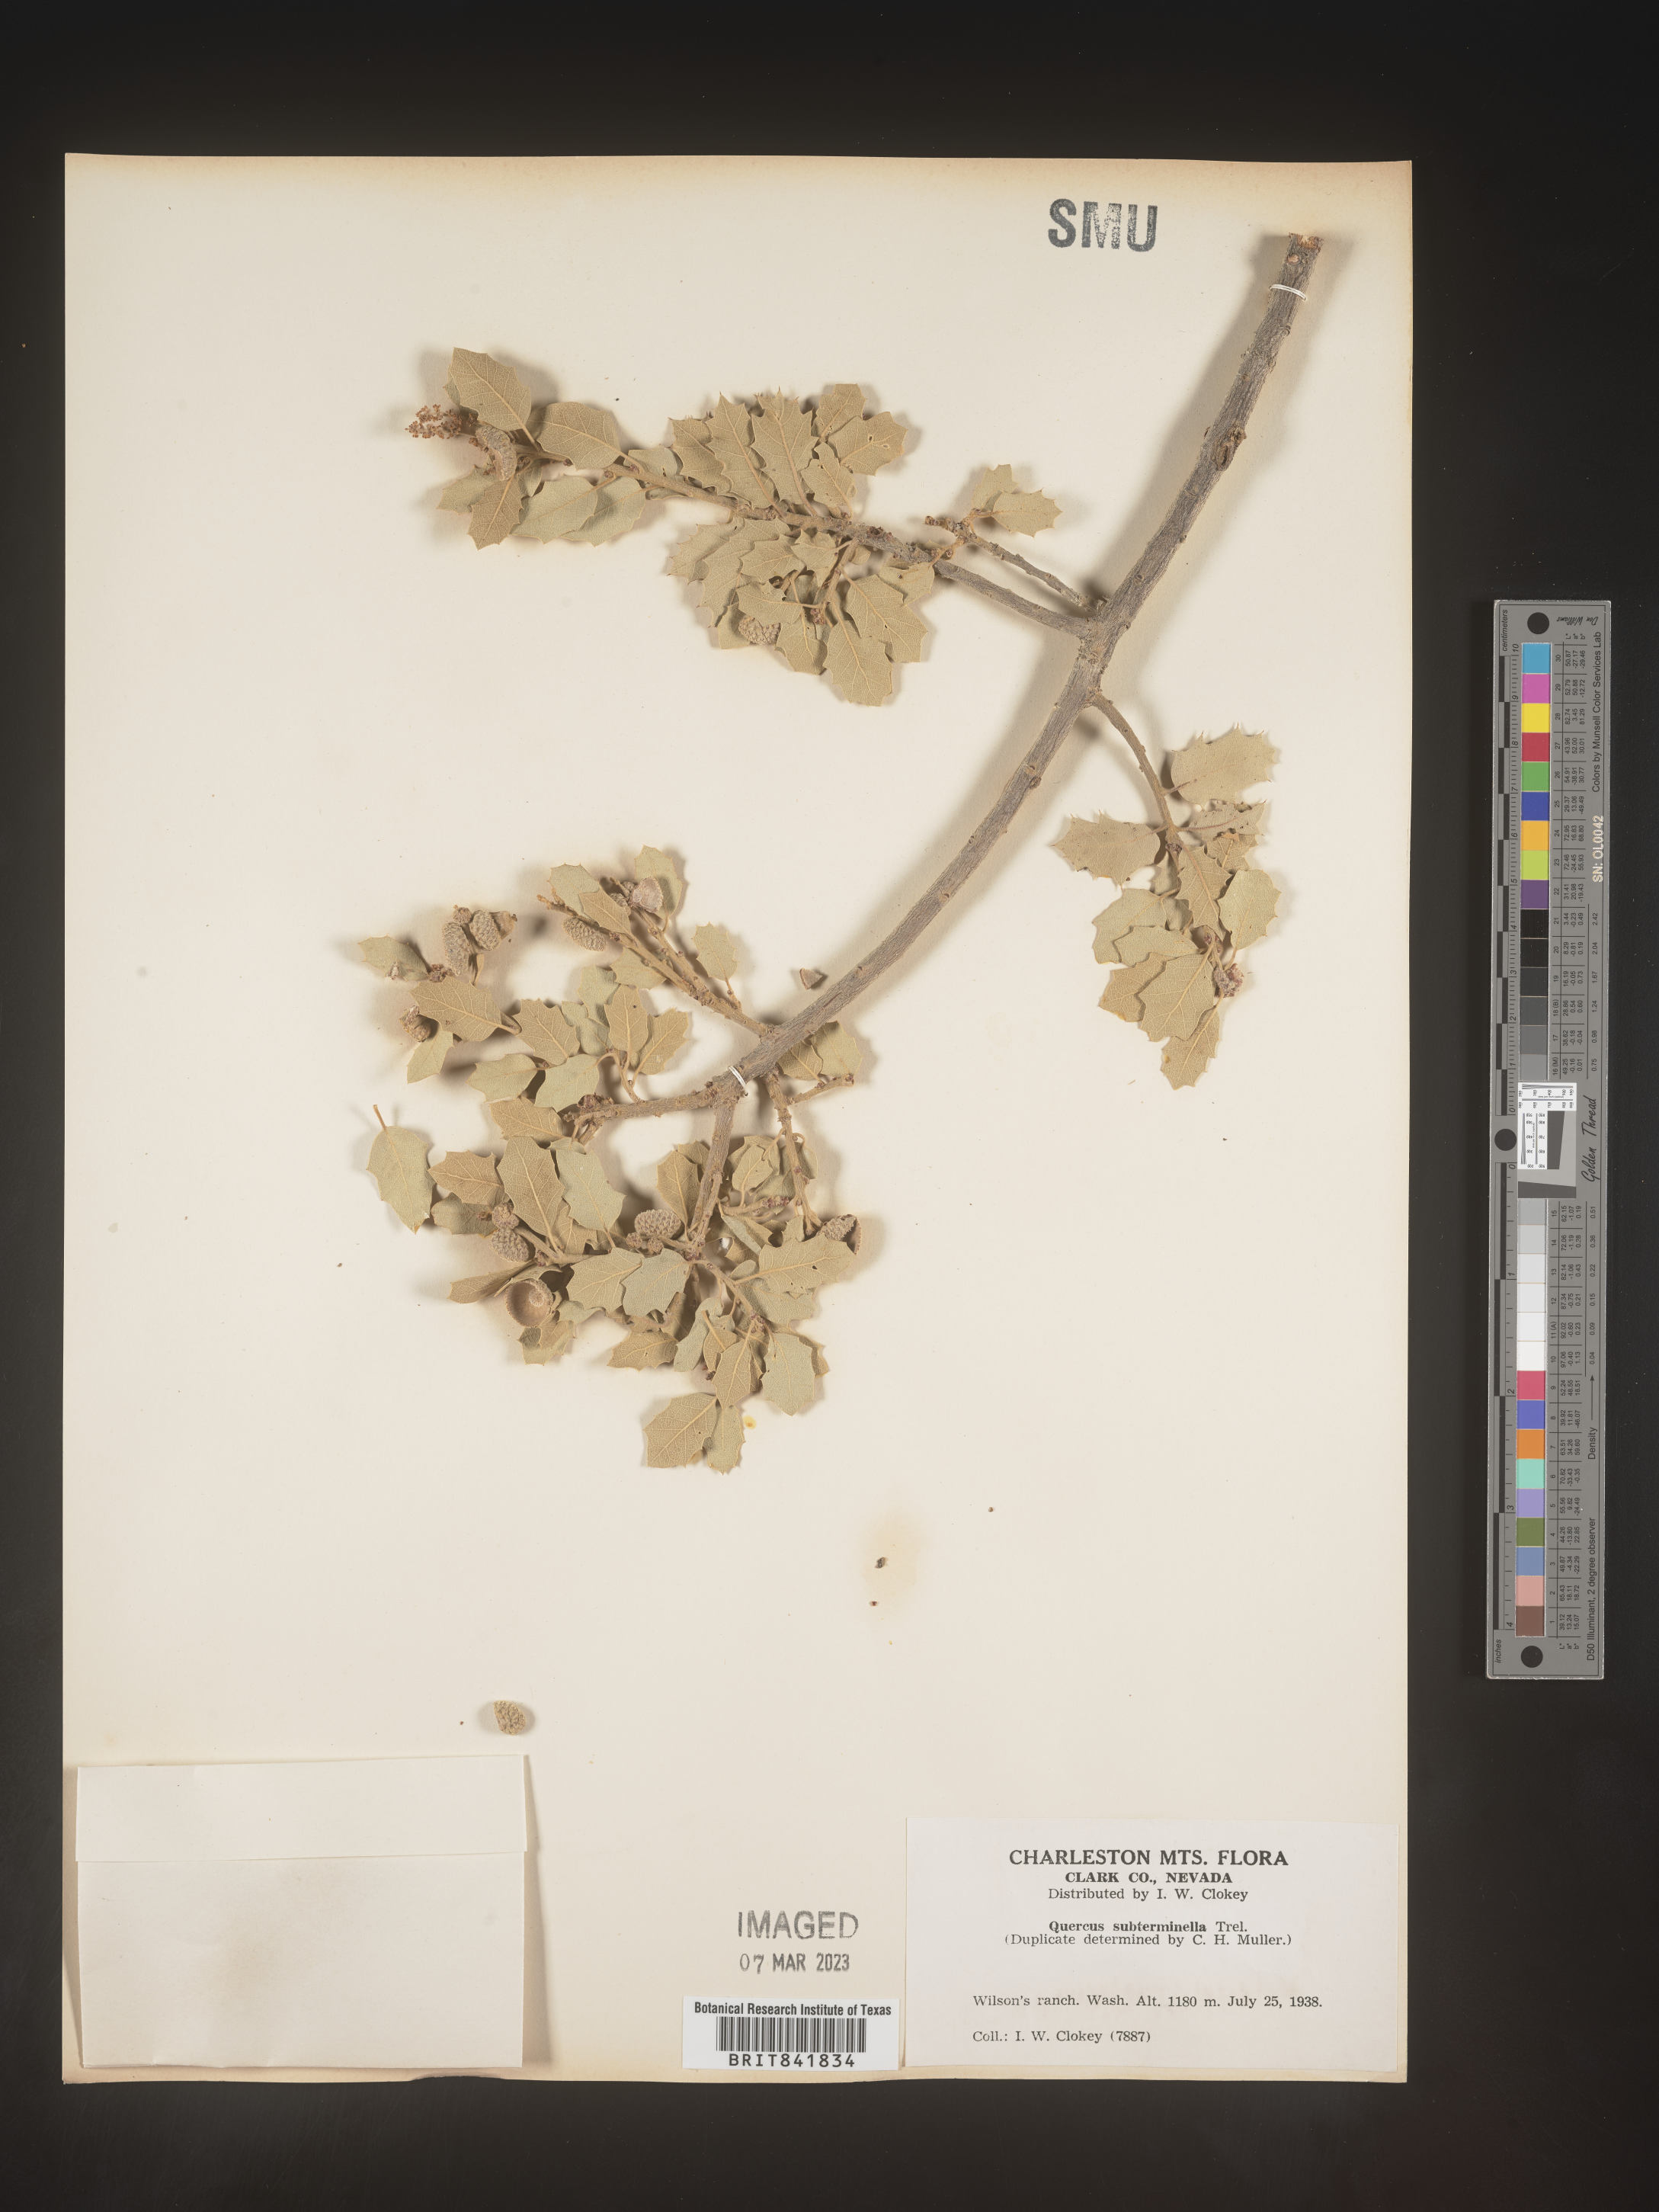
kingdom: Plantae
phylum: Tracheophyta
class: Magnoliopsida
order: Fagales
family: Fagaceae
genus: Quercus
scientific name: Quercus
